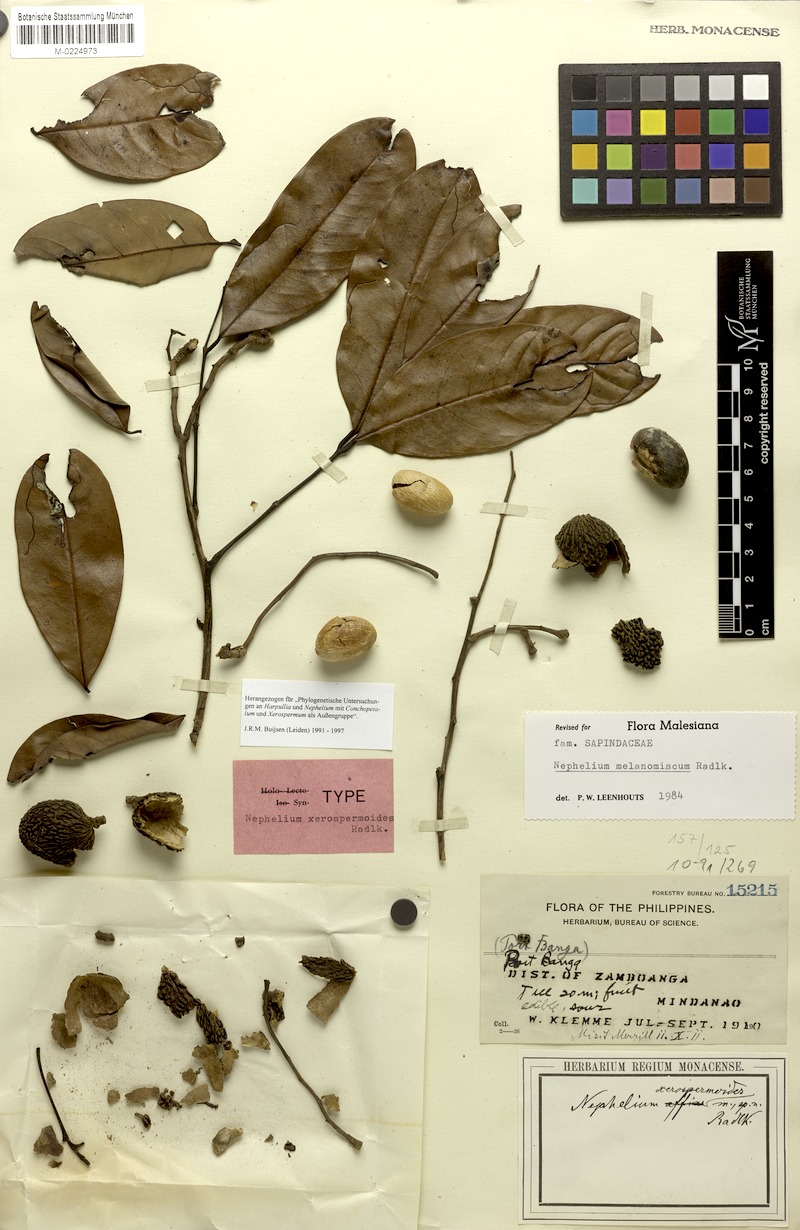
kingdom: Plantae
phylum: Tracheophyta
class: Magnoliopsida
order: Sapindales
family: Sapindaceae
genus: Nephelium
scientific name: Nephelium melanomiscum
